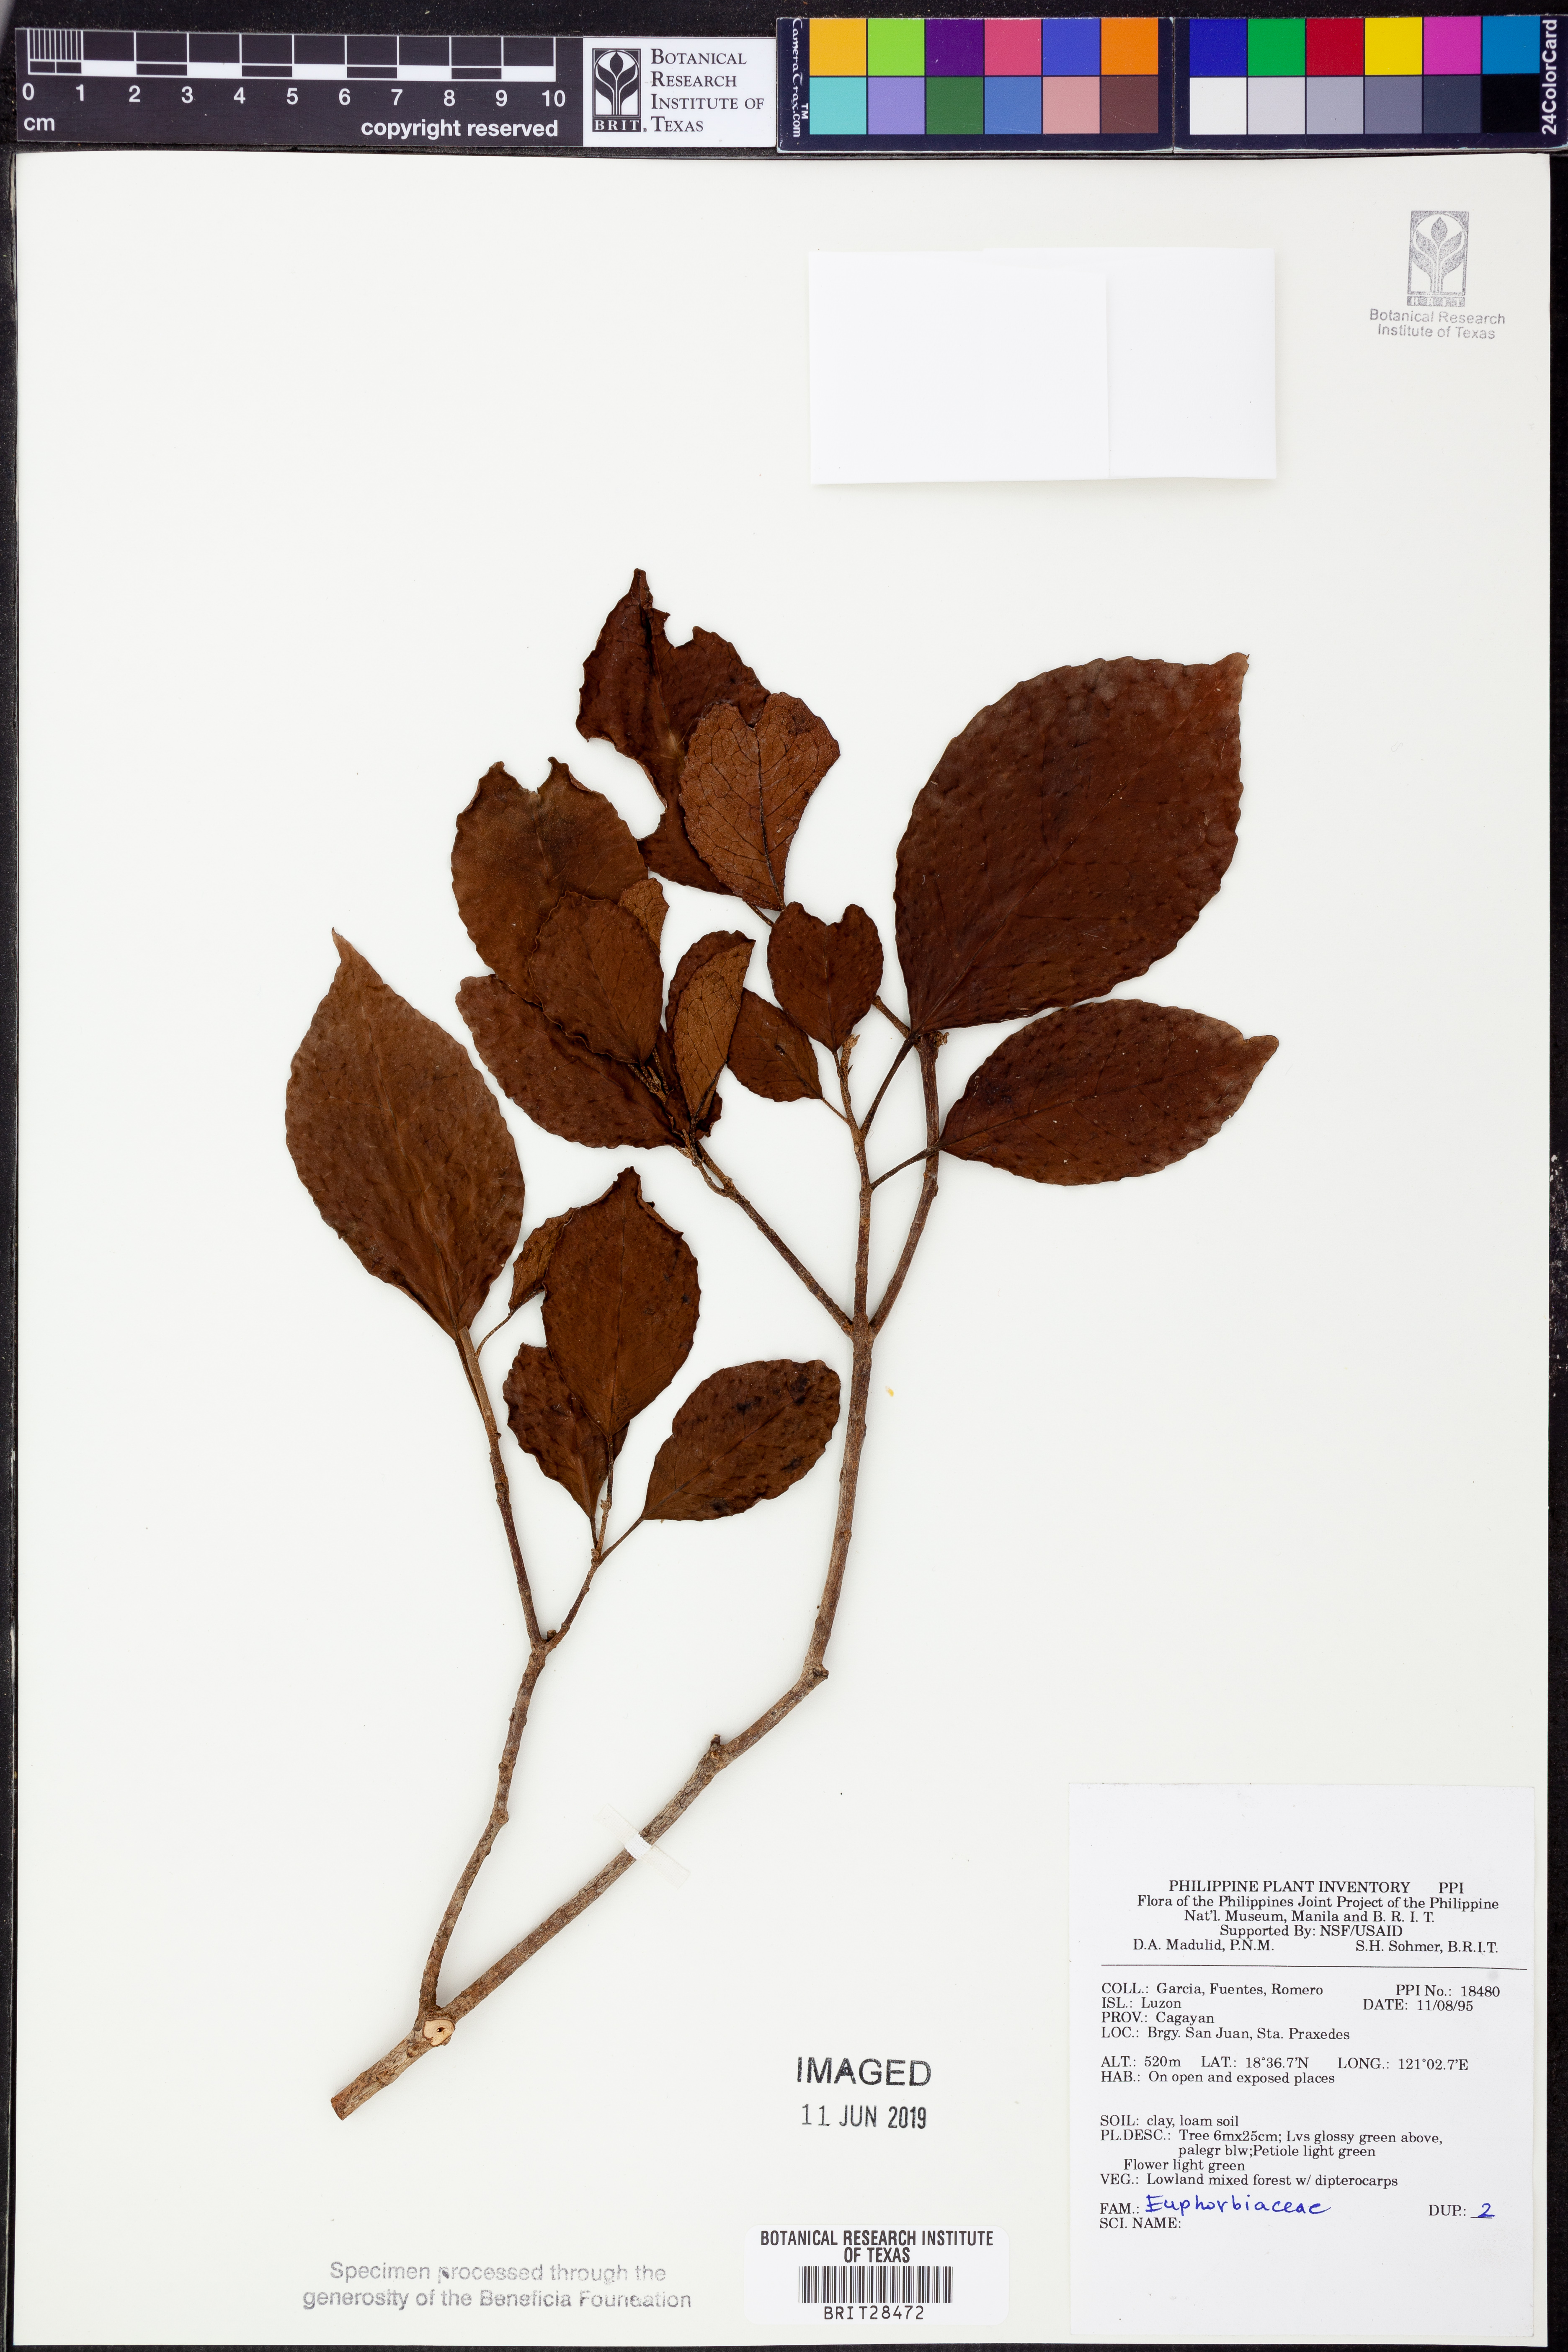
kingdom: Plantae
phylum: Tracheophyta
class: Magnoliopsida
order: Malpighiales
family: Euphorbiaceae
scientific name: Euphorbiaceae
